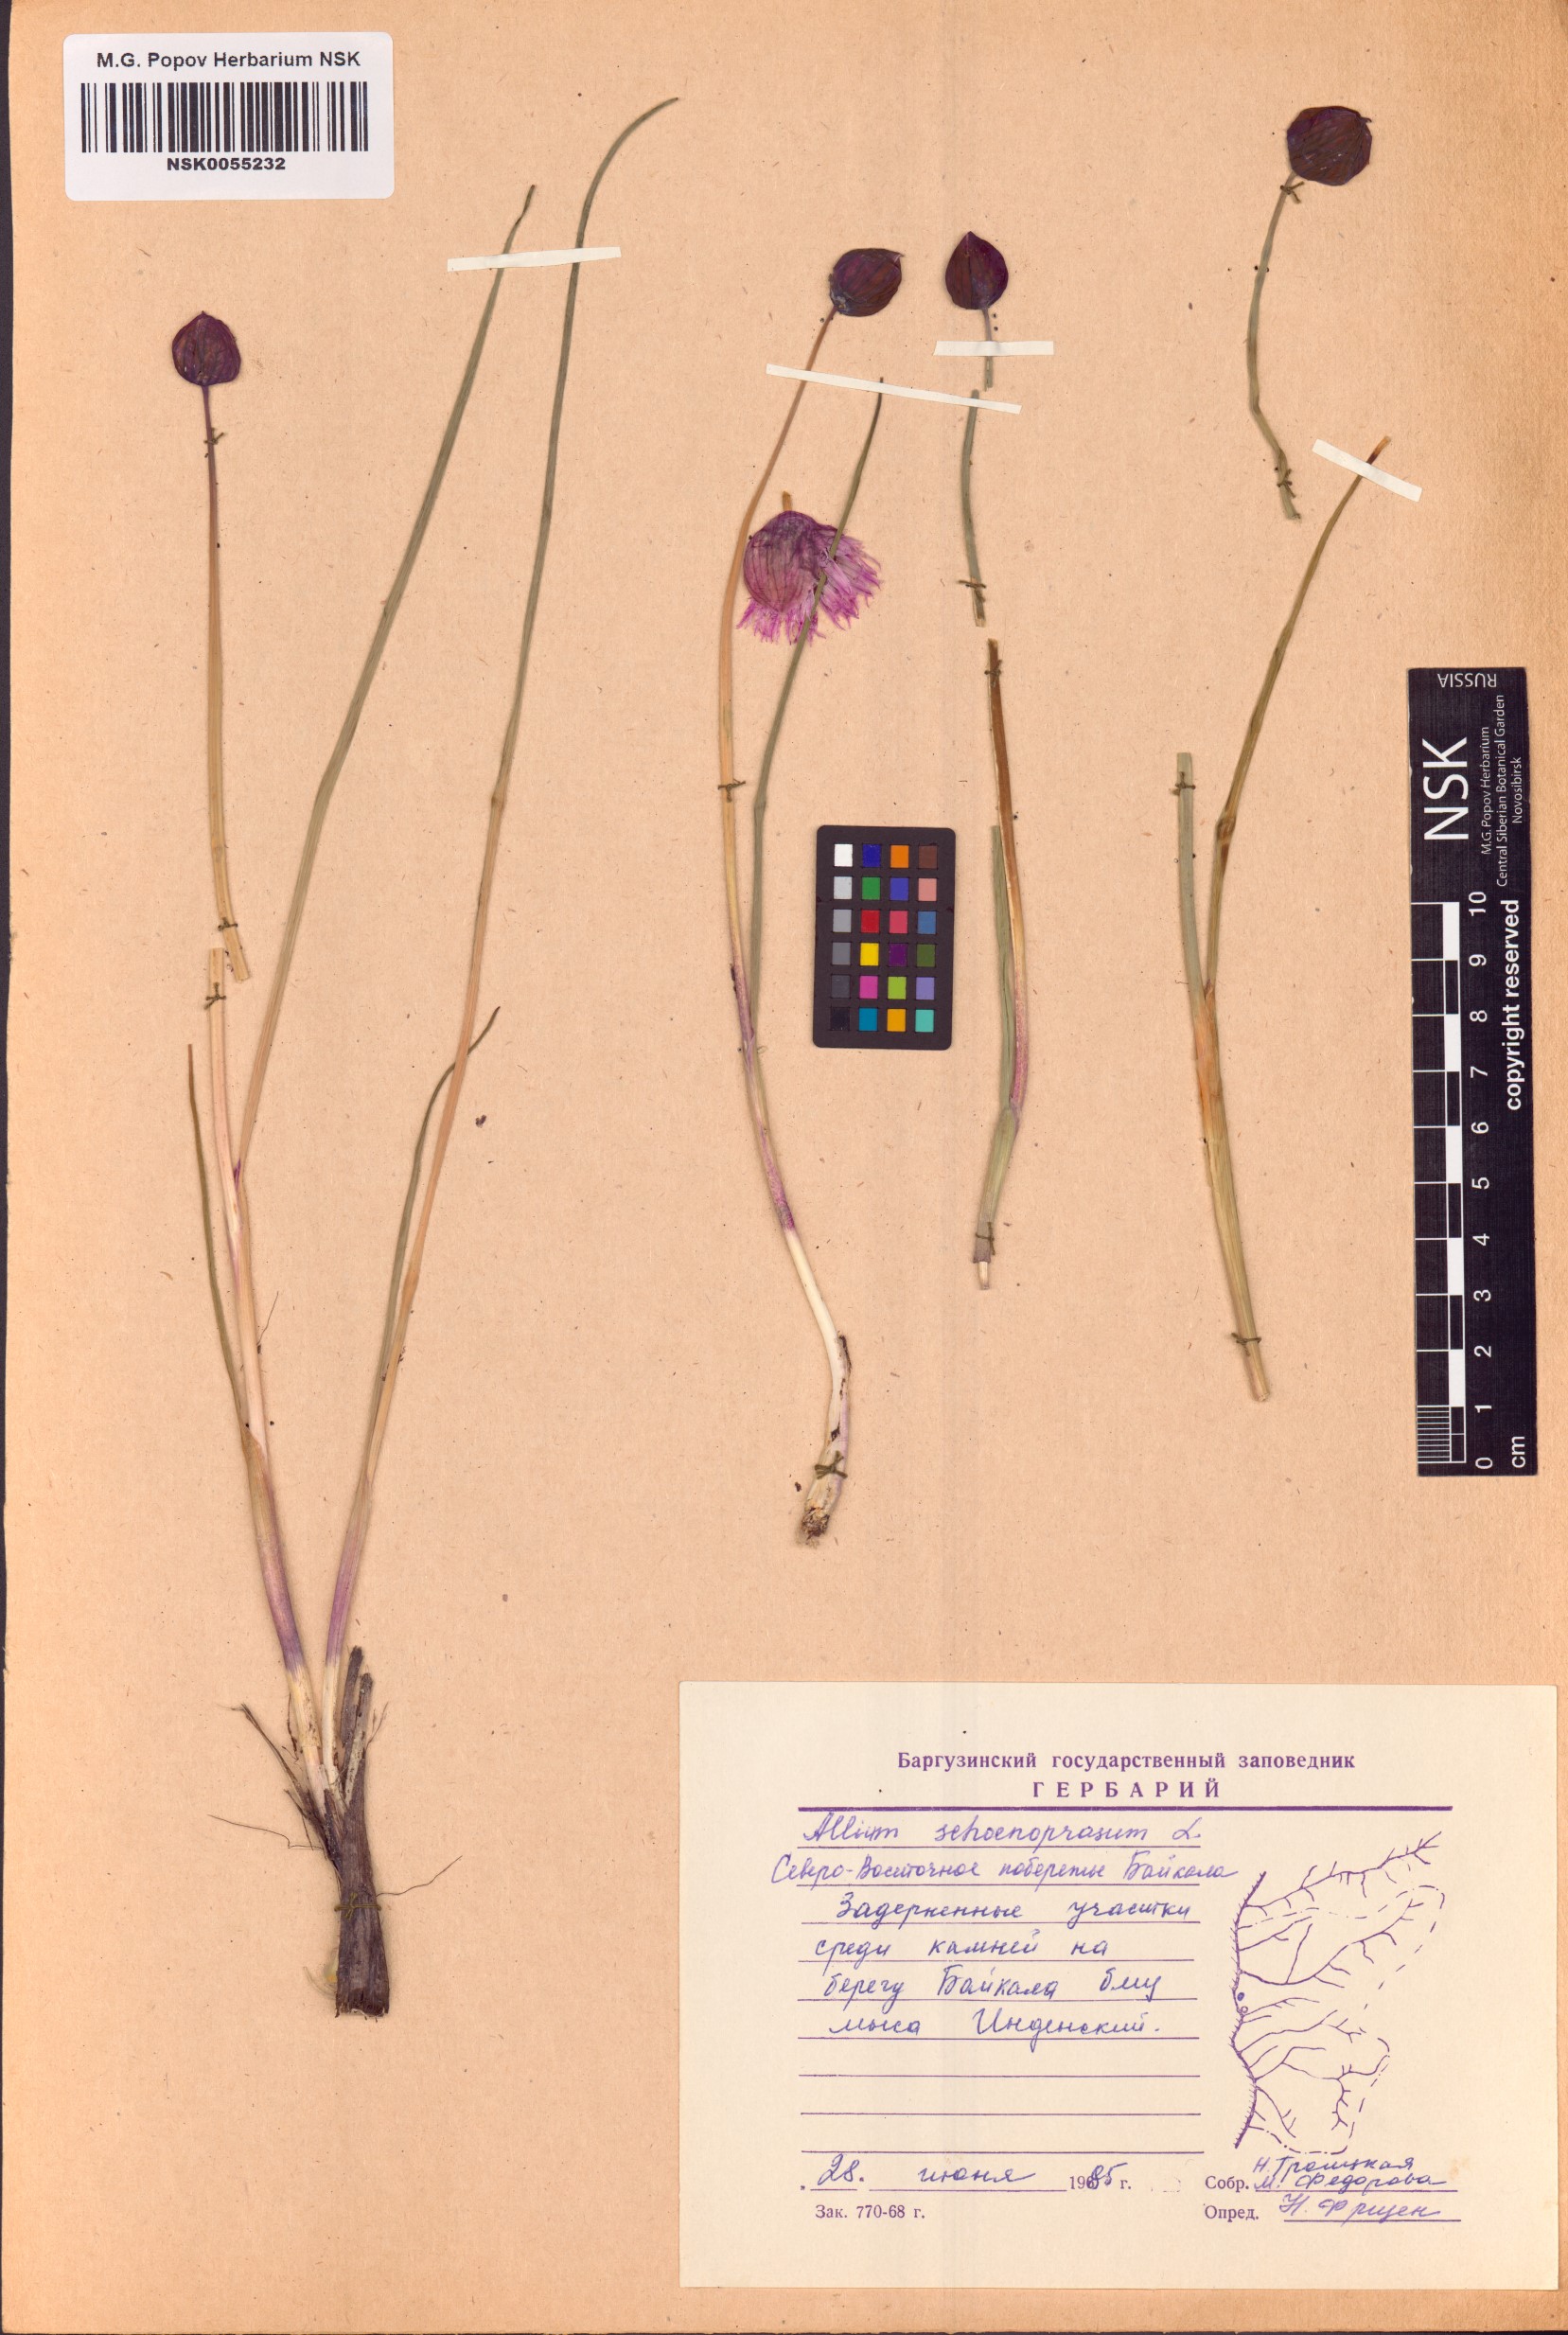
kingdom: Plantae
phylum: Tracheophyta
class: Liliopsida
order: Asparagales
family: Amaryllidaceae
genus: Allium
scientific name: Allium schoenoprasum
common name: Chives
